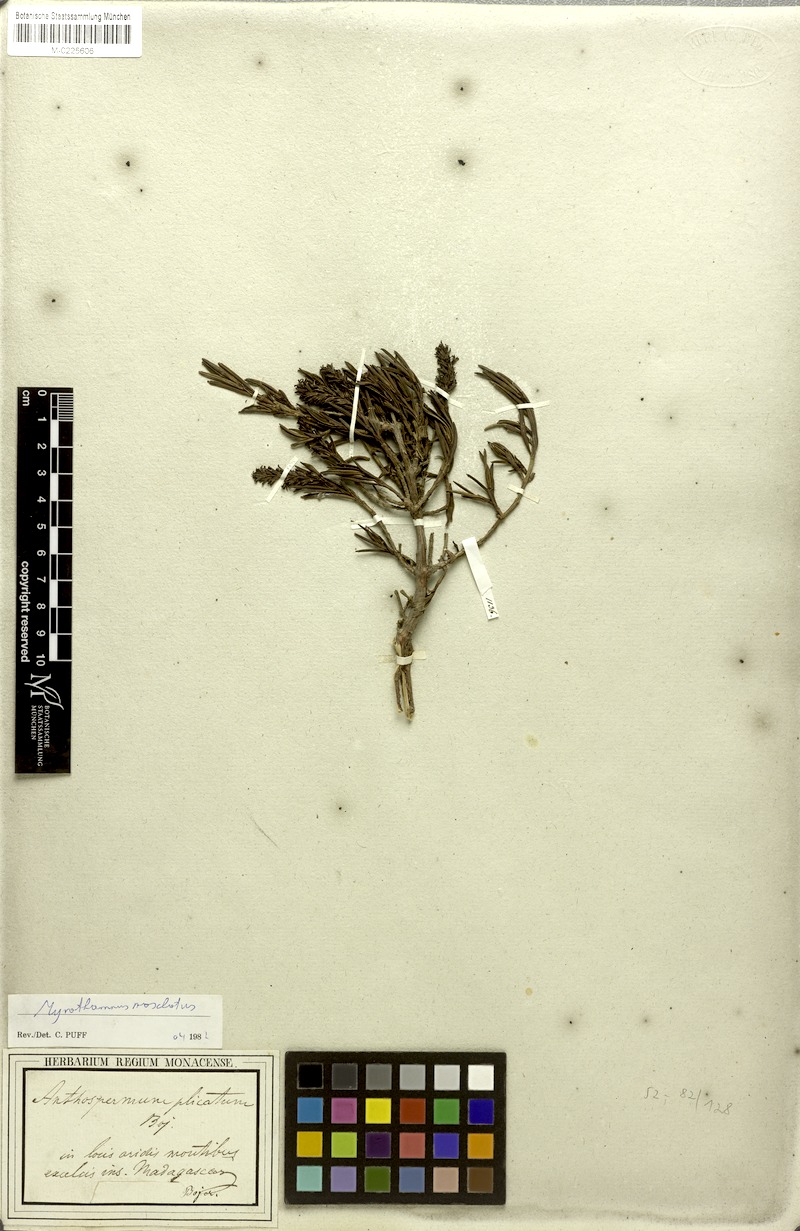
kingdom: Plantae
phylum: Tracheophyta
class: Magnoliopsida
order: Gunnerales
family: Myrothamnaceae
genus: Myrothamnus
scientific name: Myrothamnus moschatus
